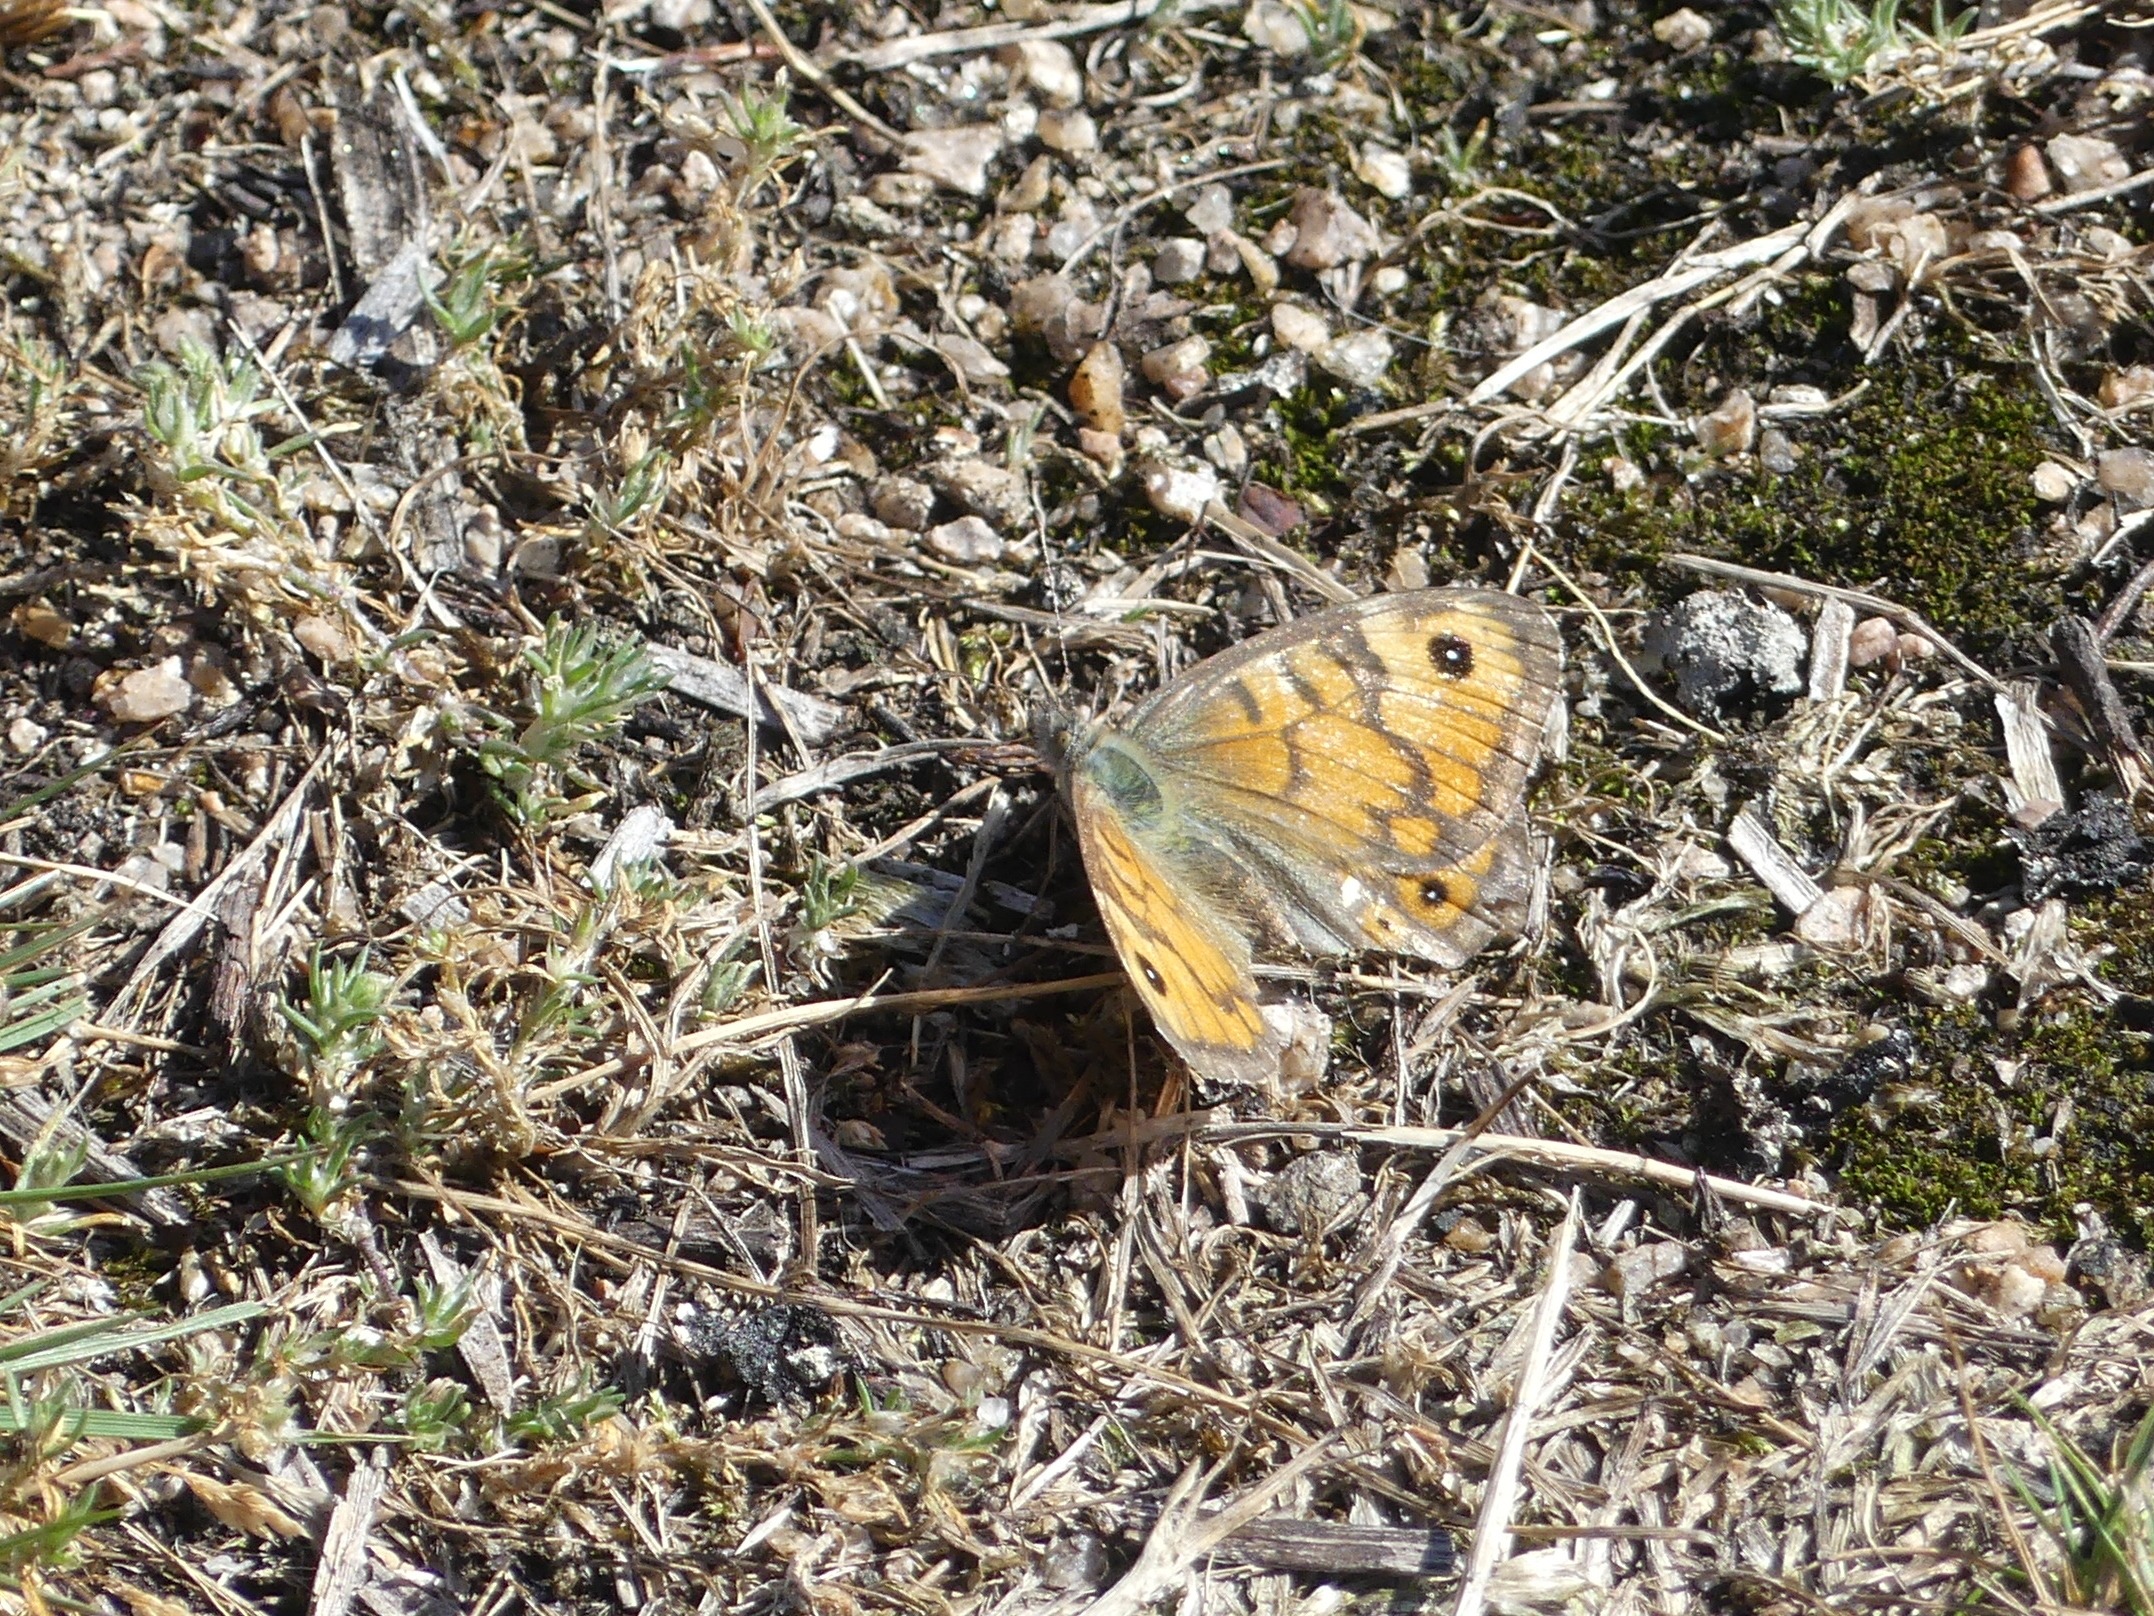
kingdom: Animalia
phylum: Arthropoda
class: Insecta
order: Lepidoptera
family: Nymphalidae
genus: Pararge
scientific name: Pararge Lasiommata megera
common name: Vejrandøje
